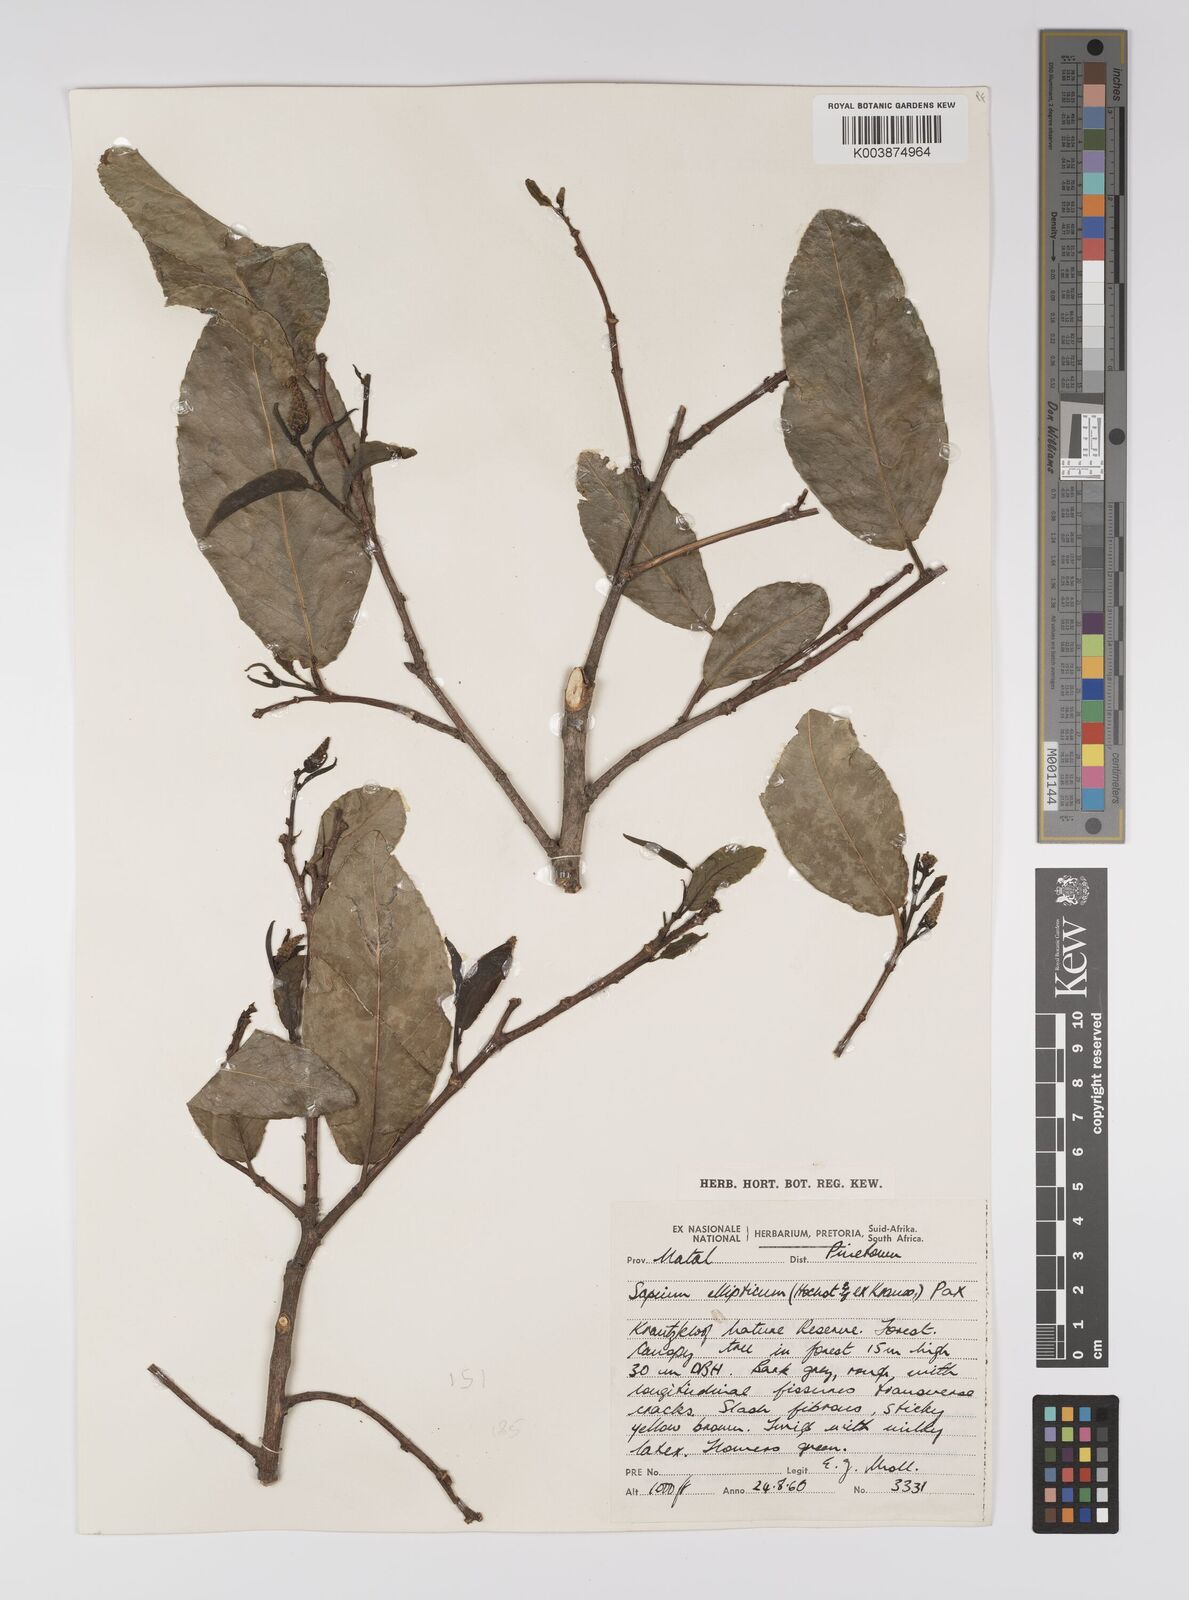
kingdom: Plantae
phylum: Tracheophyta
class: Magnoliopsida
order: Malpighiales
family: Euphorbiaceae
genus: Shirakiopsis
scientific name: Shirakiopsis elliptica
